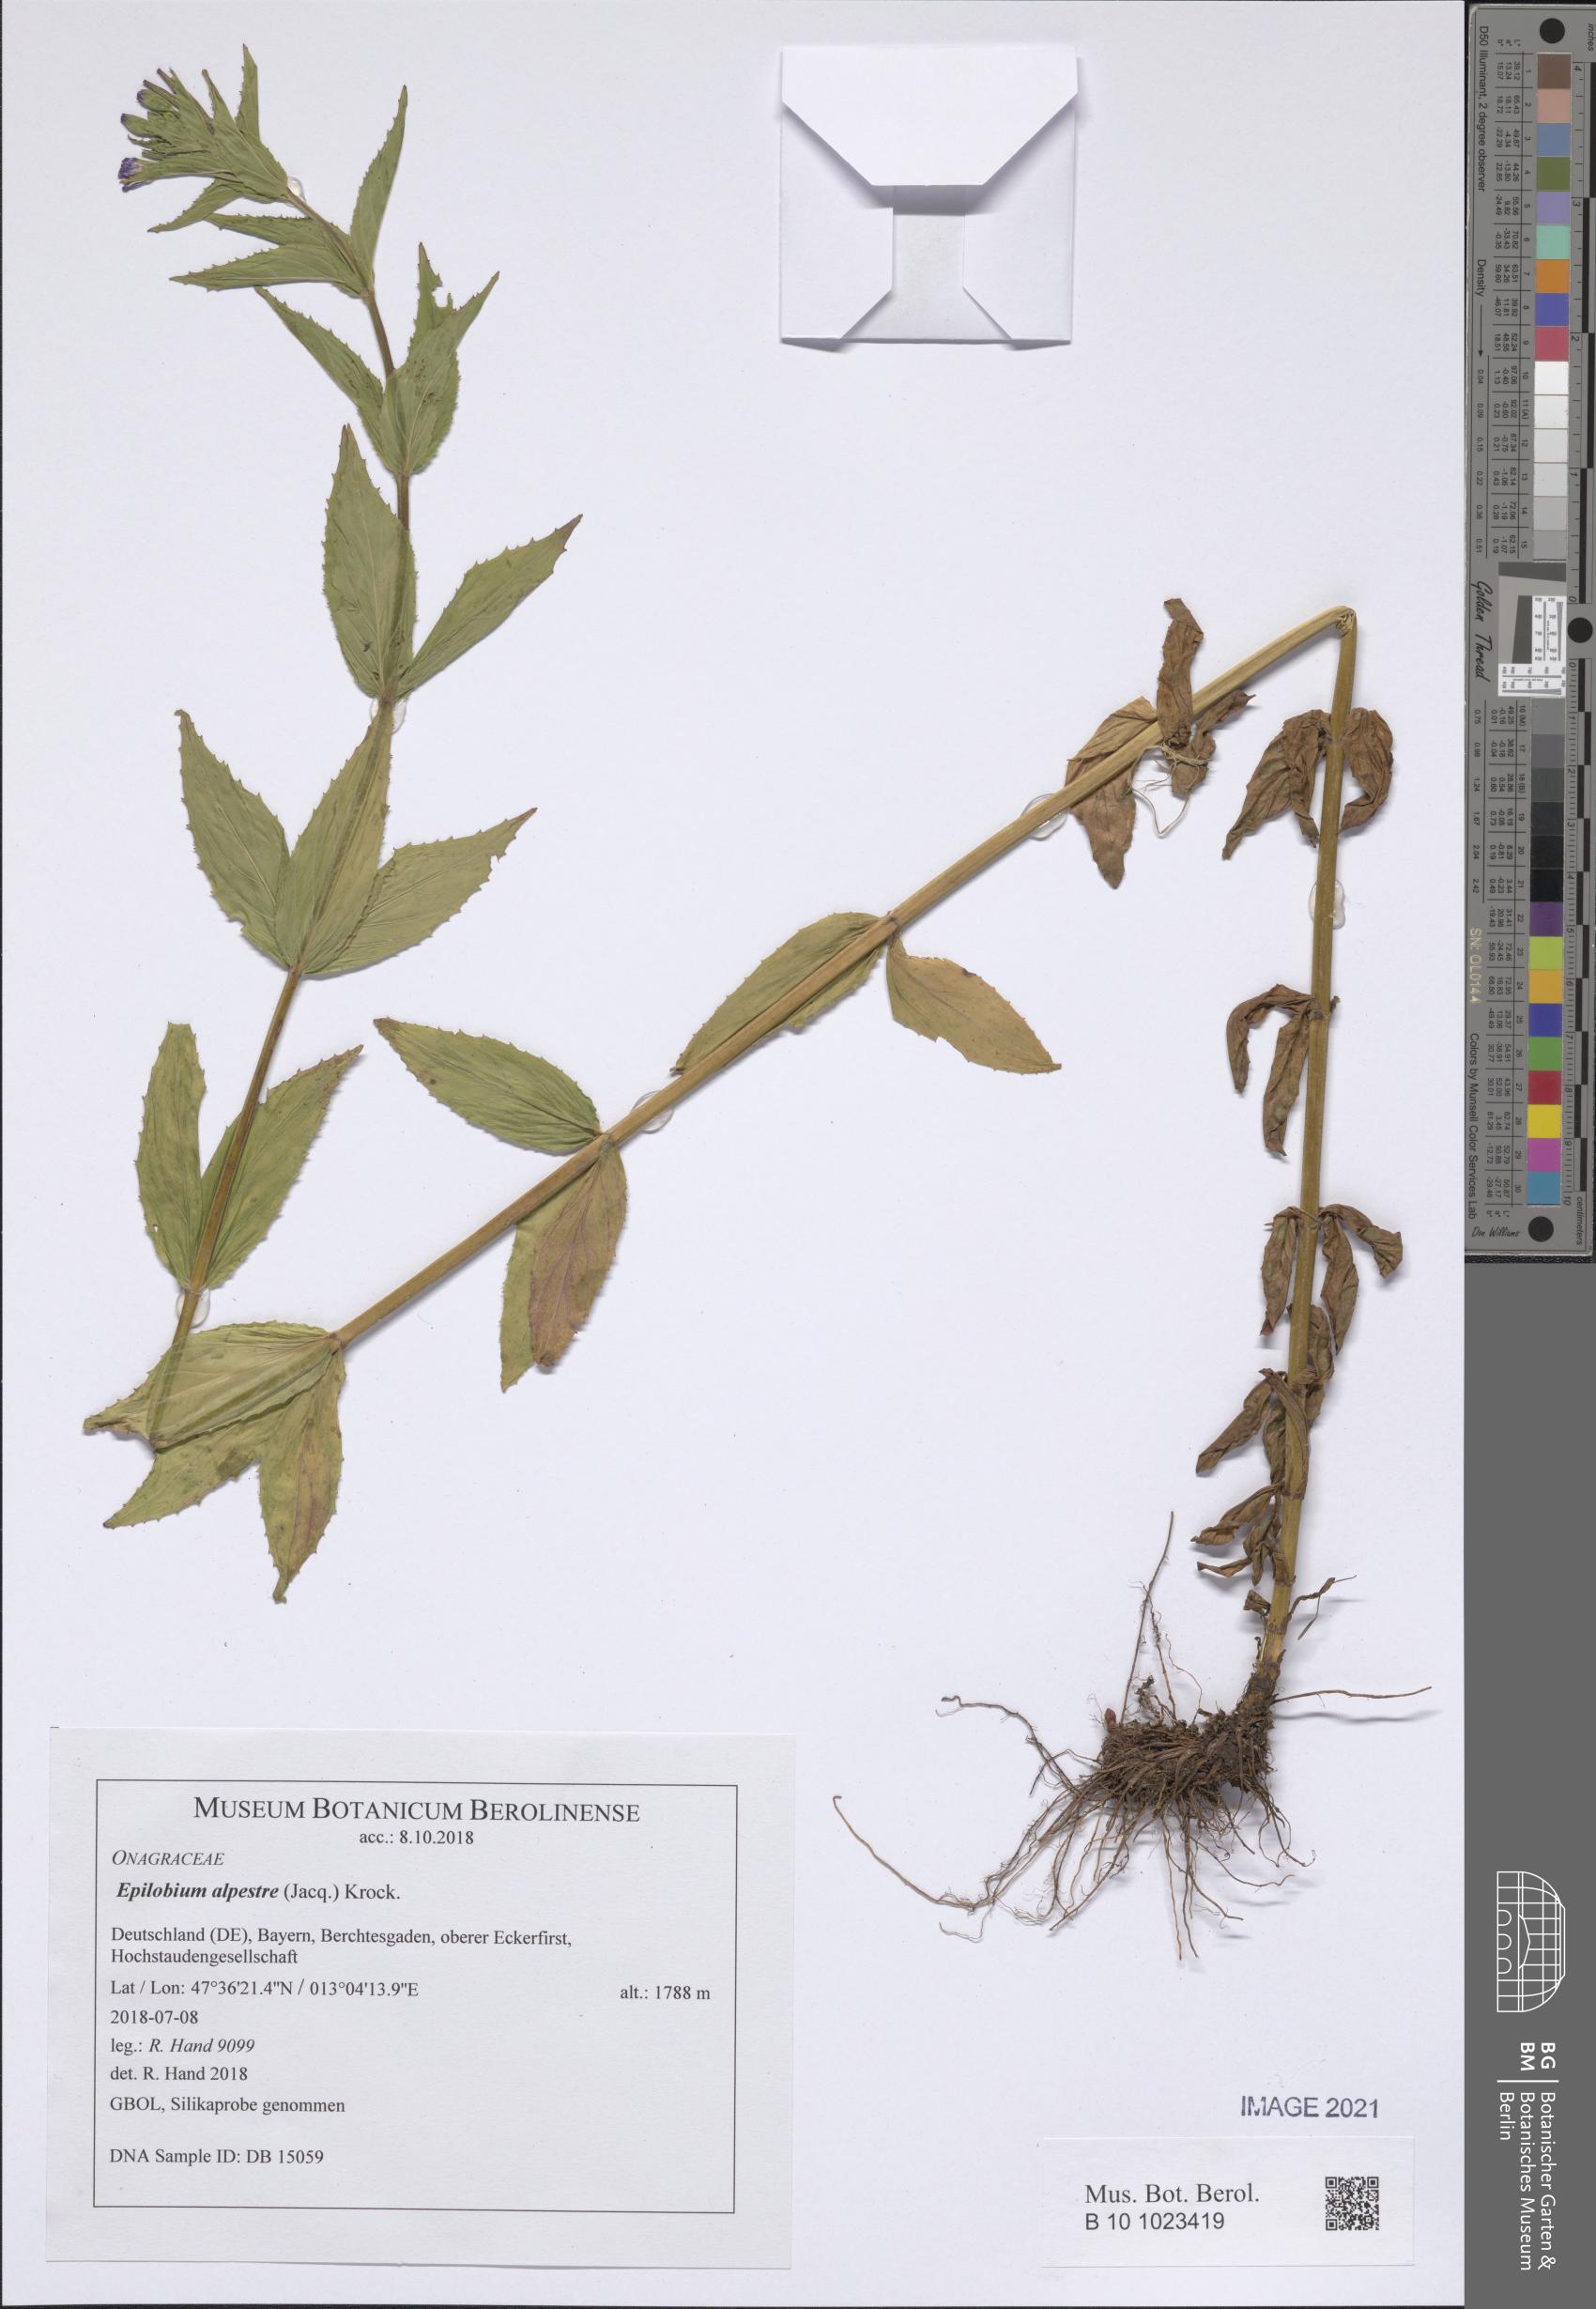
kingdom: Plantae
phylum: Tracheophyta
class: Magnoliopsida
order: Myrtales
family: Onagraceae
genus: Epilobium
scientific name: Epilobium alpestre
